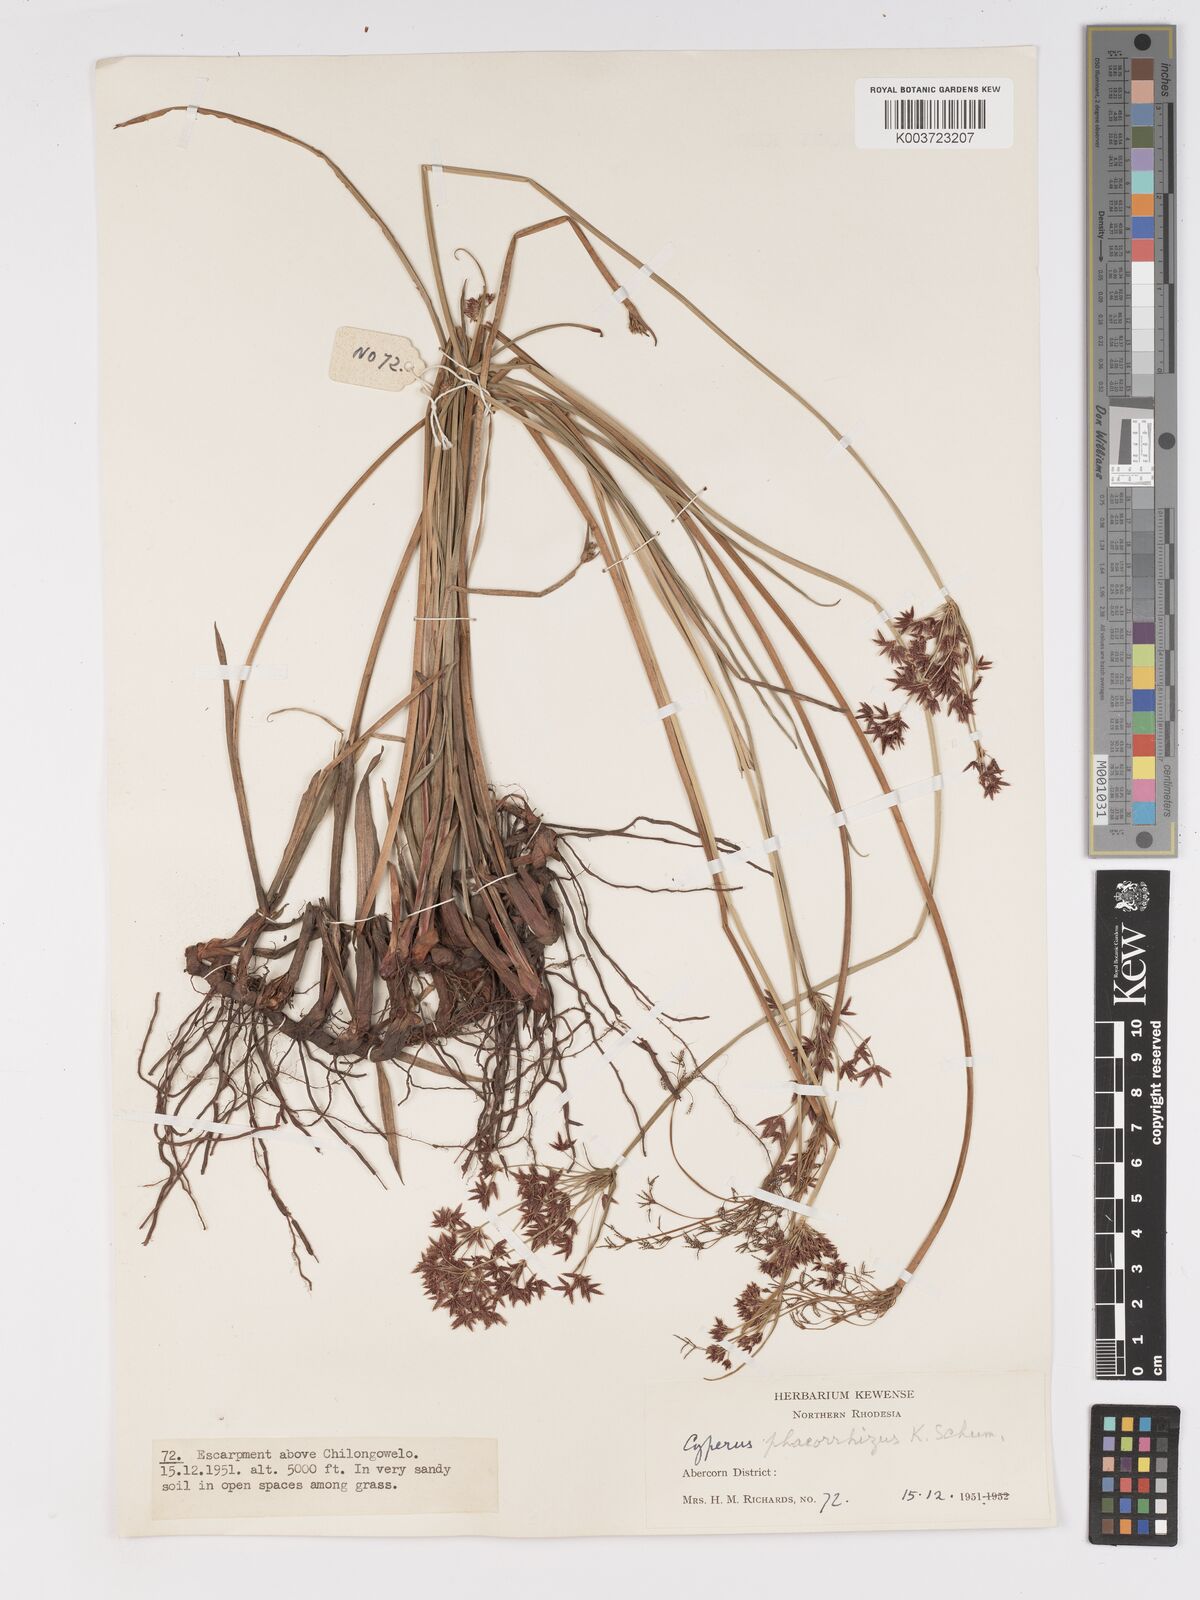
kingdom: Plantae
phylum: Tracheophyta
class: Liliopsida
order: Poales
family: Cyperaceae
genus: Cyperus
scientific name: Cyperus haspan
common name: Haspan flatsedge
